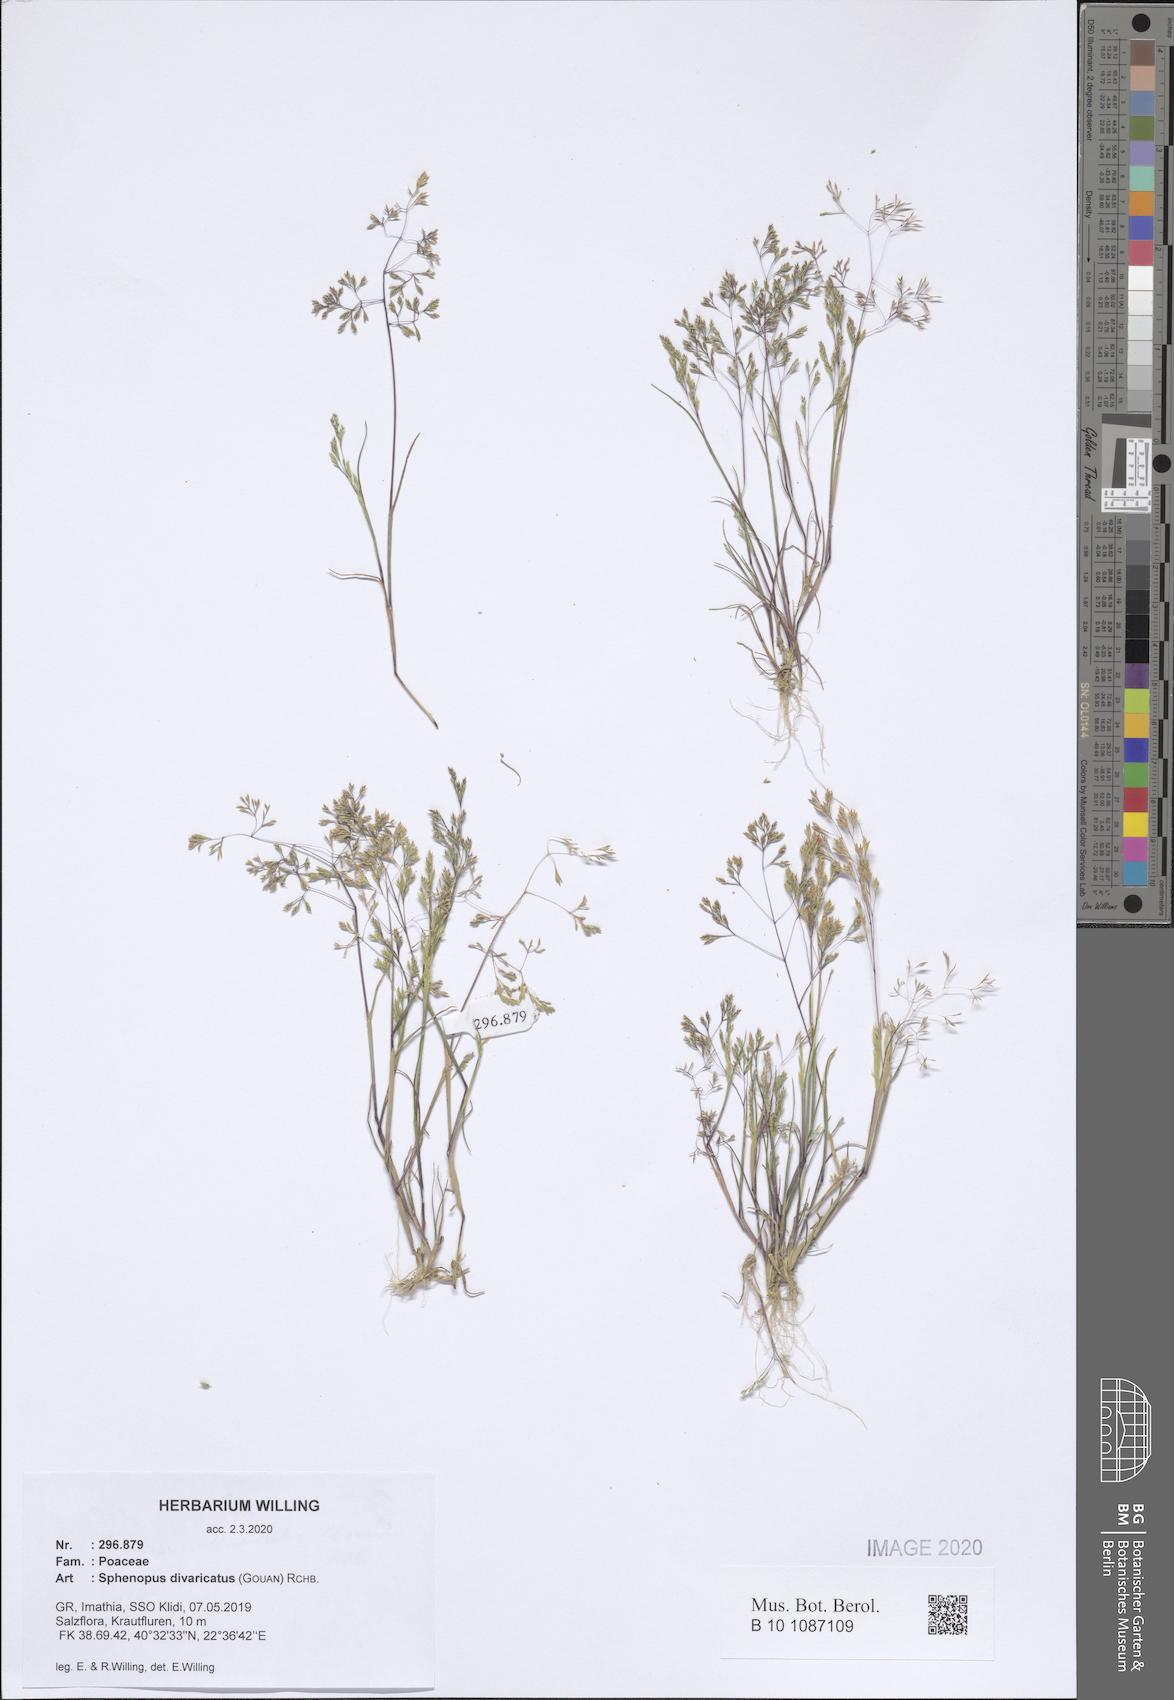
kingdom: Plantae
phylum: Tracheophyta
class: Liliopsida
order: Poales
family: Poaceae
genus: Sphenopus
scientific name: Sphenopus divaricatus
